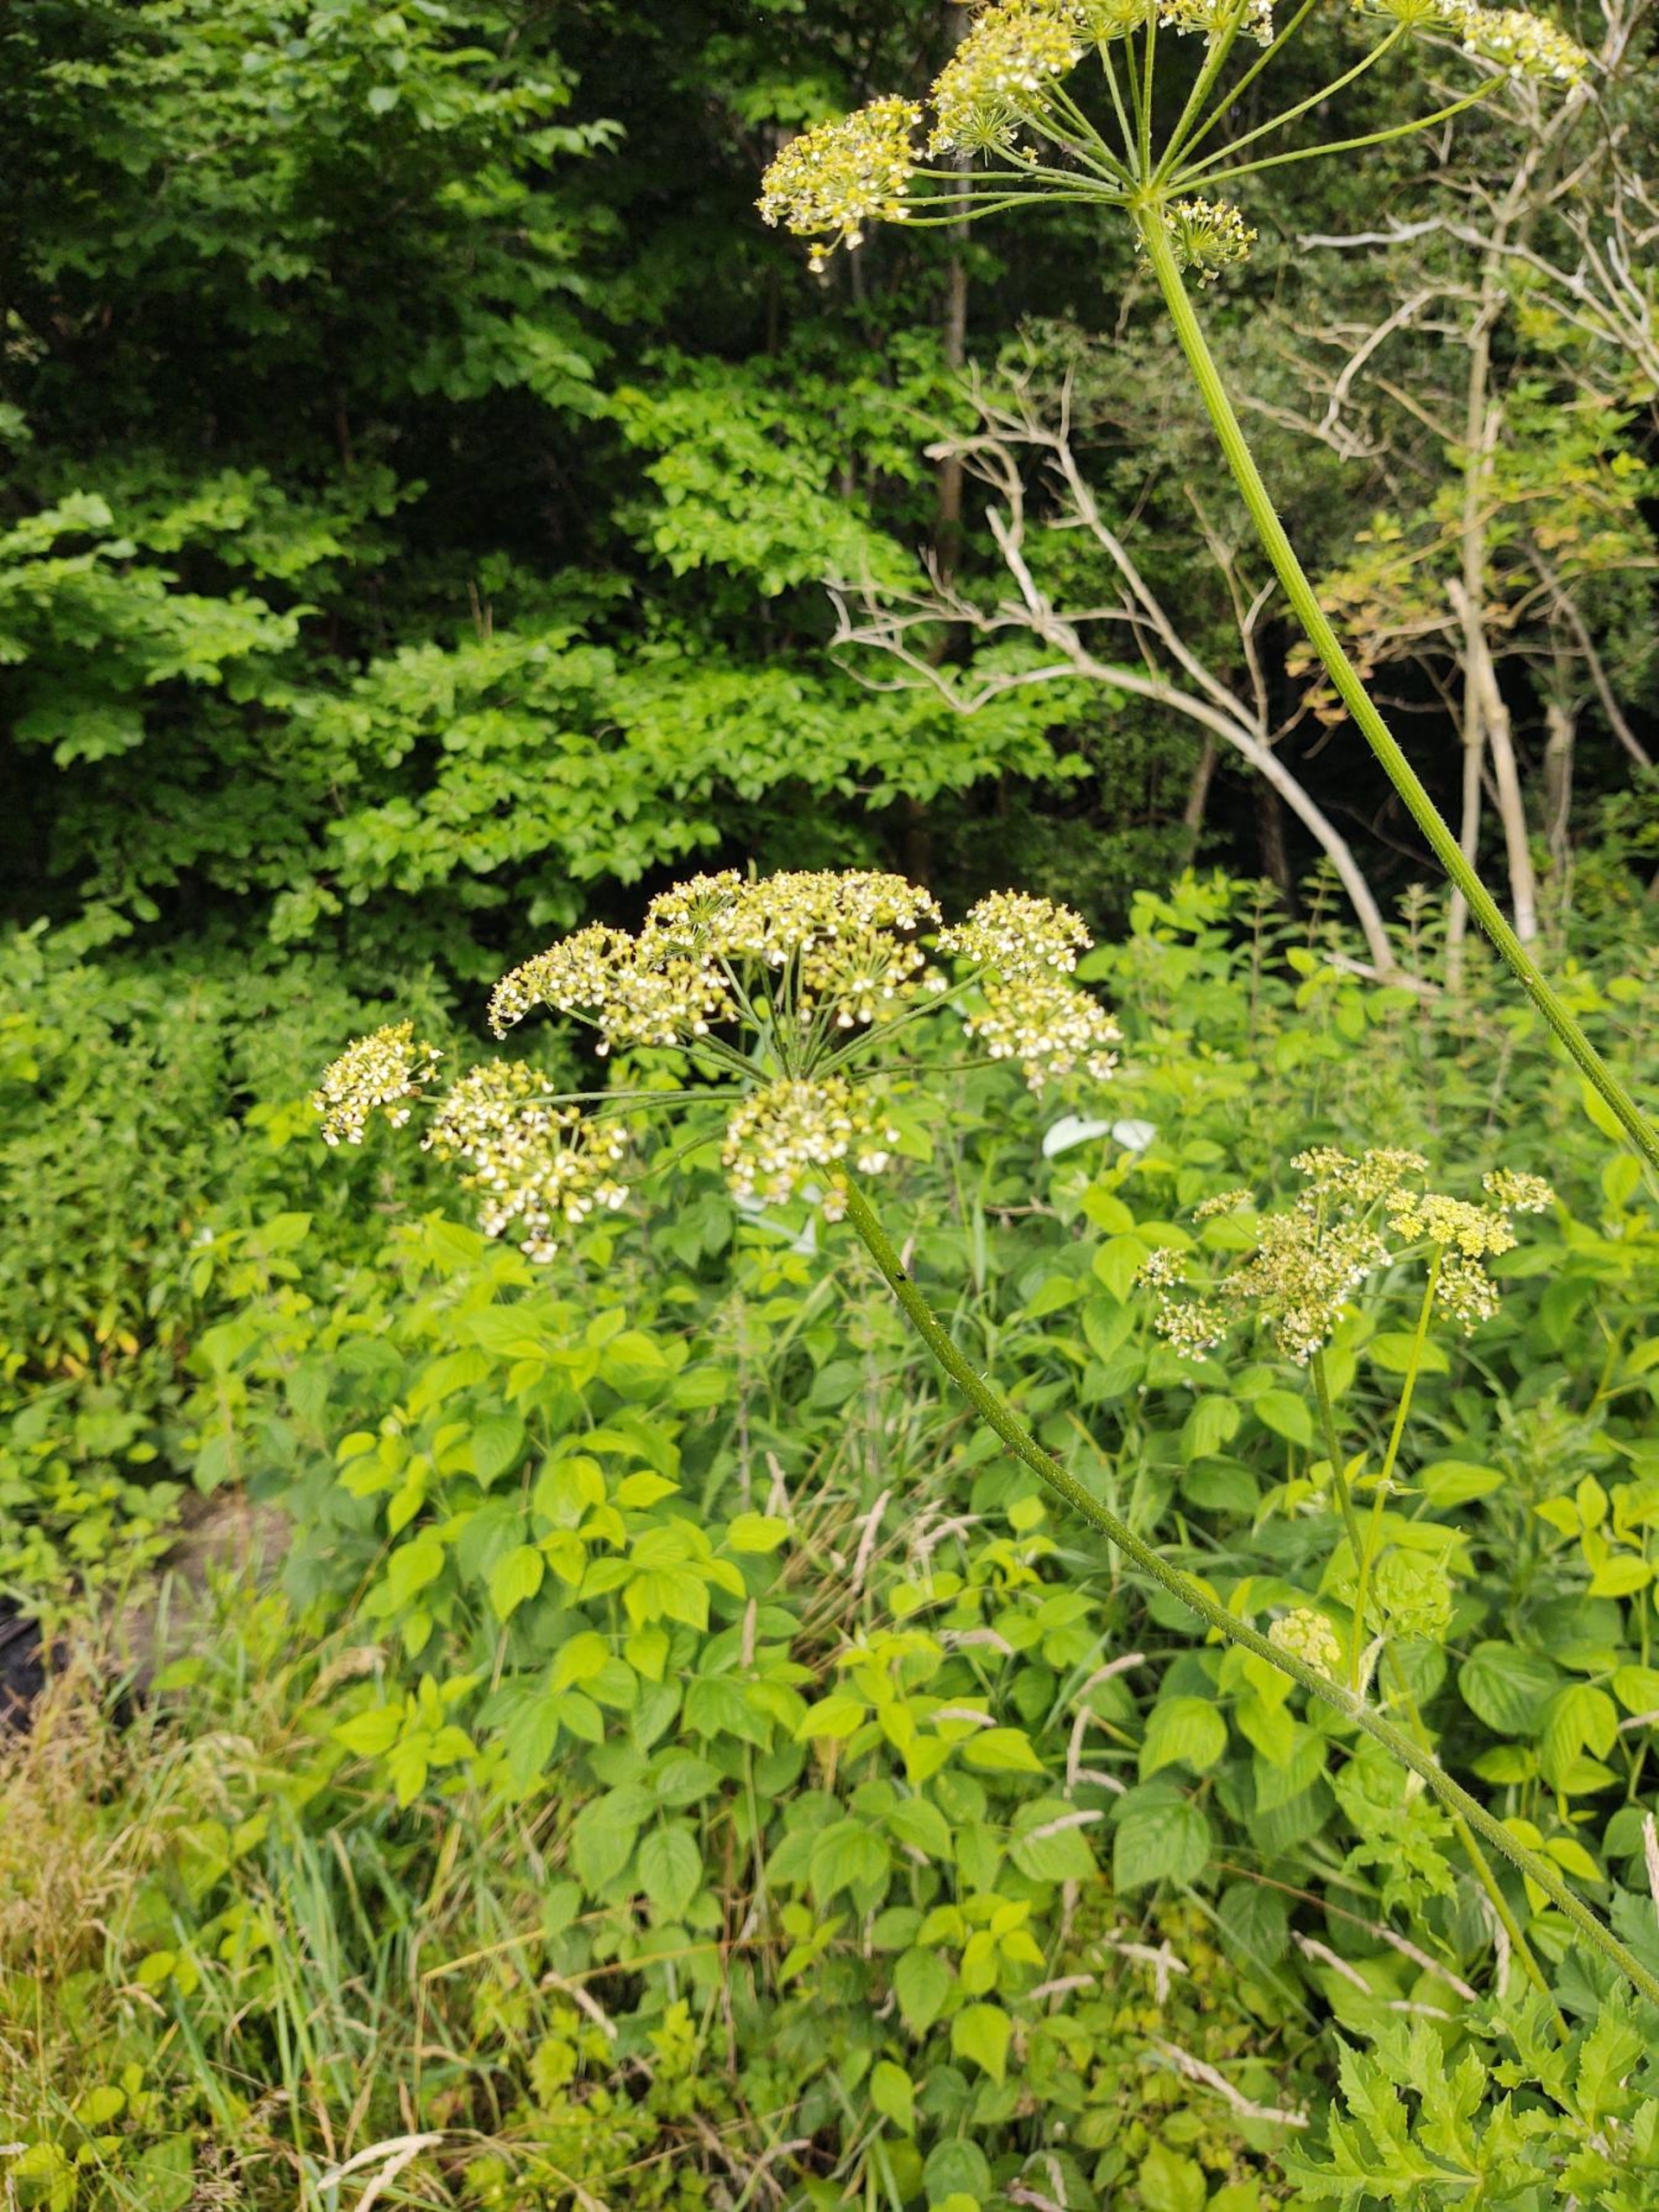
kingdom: Plantae
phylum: Tracheophyta
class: Magnoliopsida
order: Apiales
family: Apiaceae
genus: Heracleum
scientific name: Heracleum sphondylium
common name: Almindelig bjørneklo
